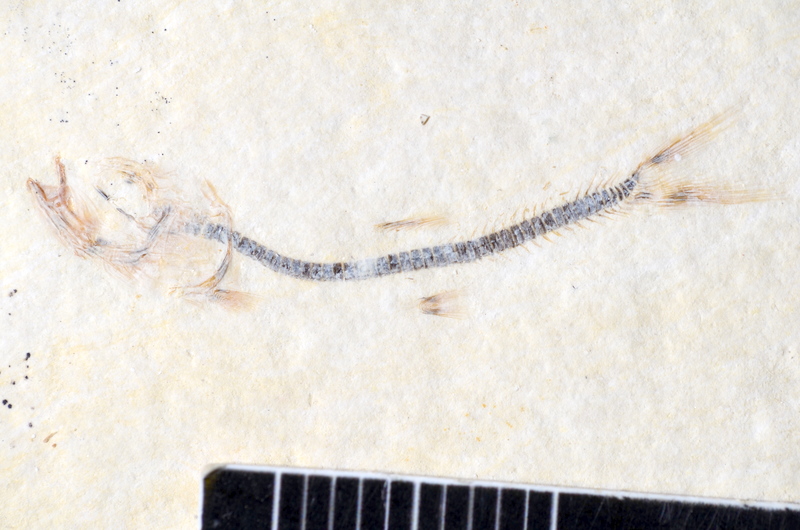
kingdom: Animalia
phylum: Chordata
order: Salmoniformes
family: Orthogonikleithridae
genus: Orthogonikleithrus
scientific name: Orthogonikleithrus hoelli
